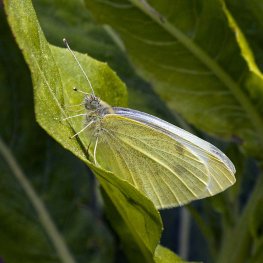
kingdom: Animalia
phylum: Arthropoda
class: Insecta
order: Lepidoptera
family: Pieridae
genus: Pieris
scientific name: Pieris rapae
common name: Cabbage White
